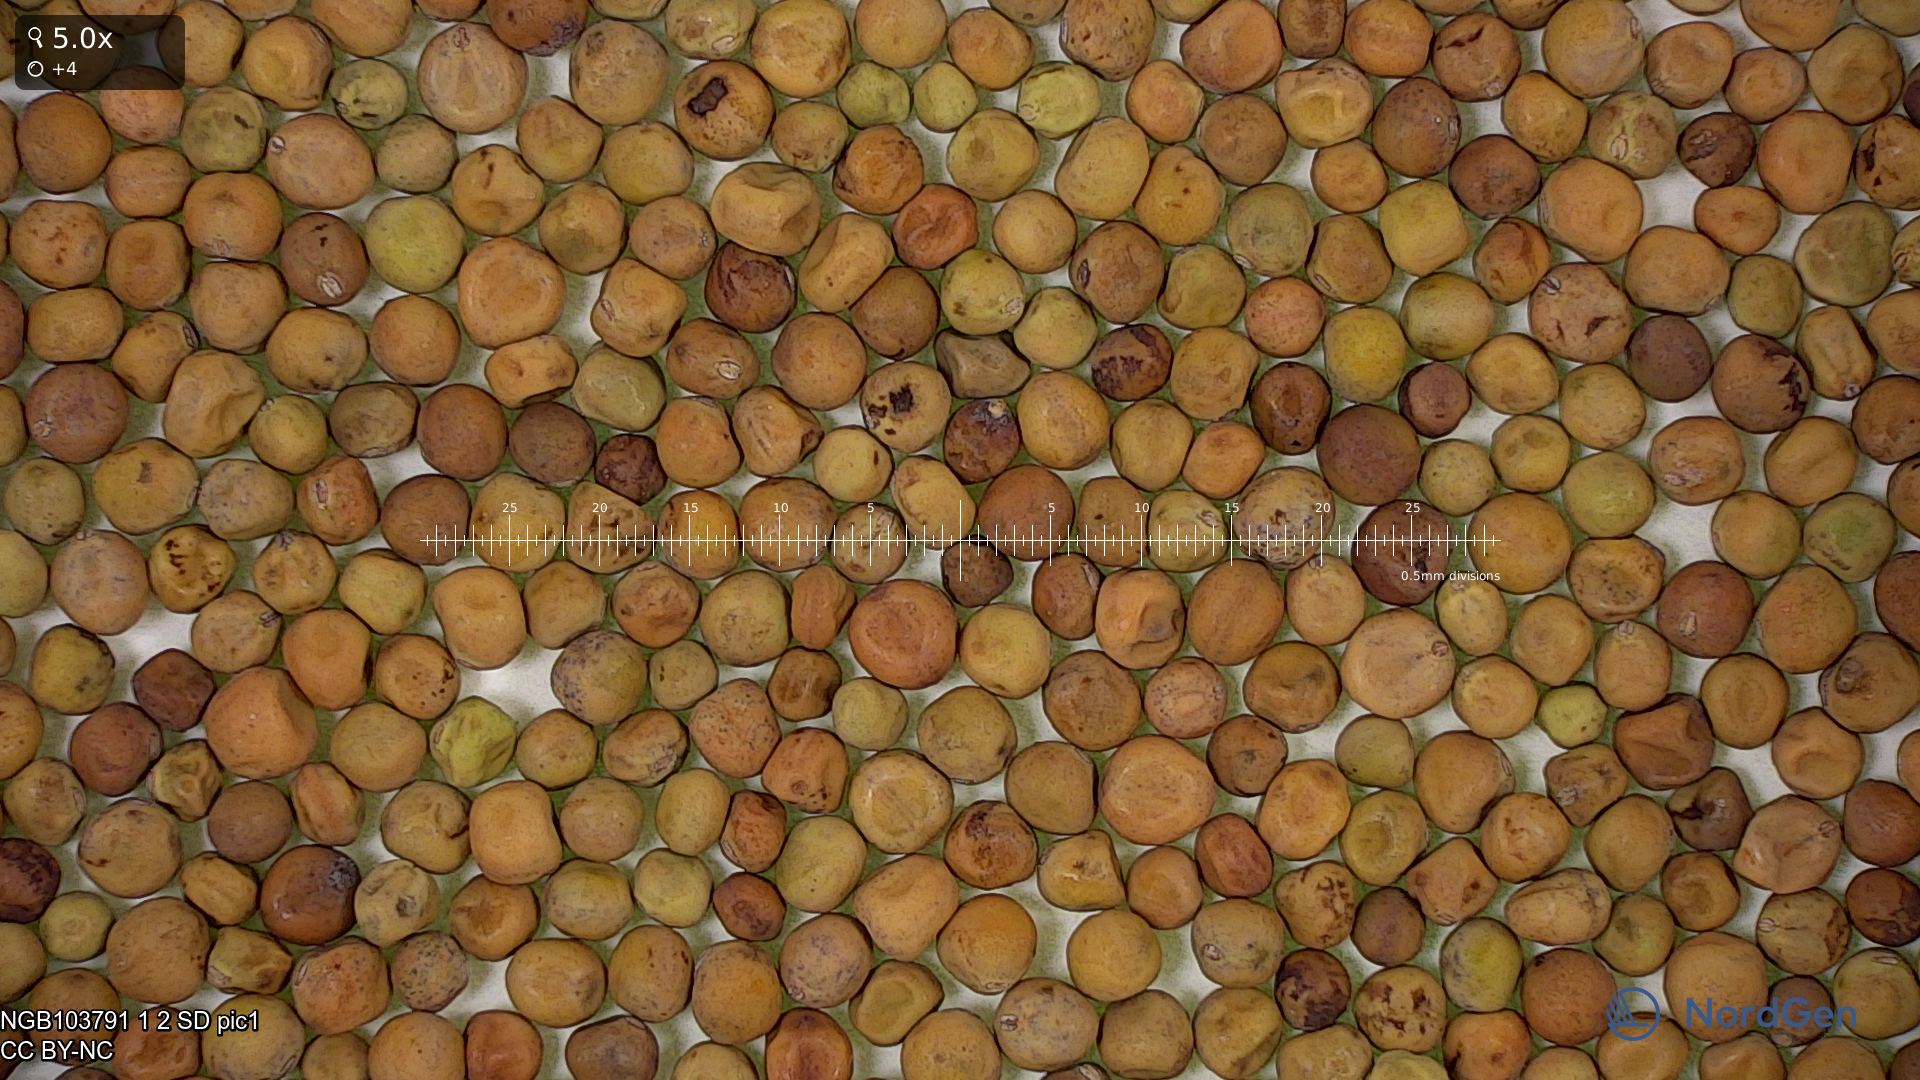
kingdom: Plantae
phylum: Tracheophyta
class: Magnoliopsida
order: Fabales
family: Fabaceae
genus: Lathyrus
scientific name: Lathyrus oleraceus
